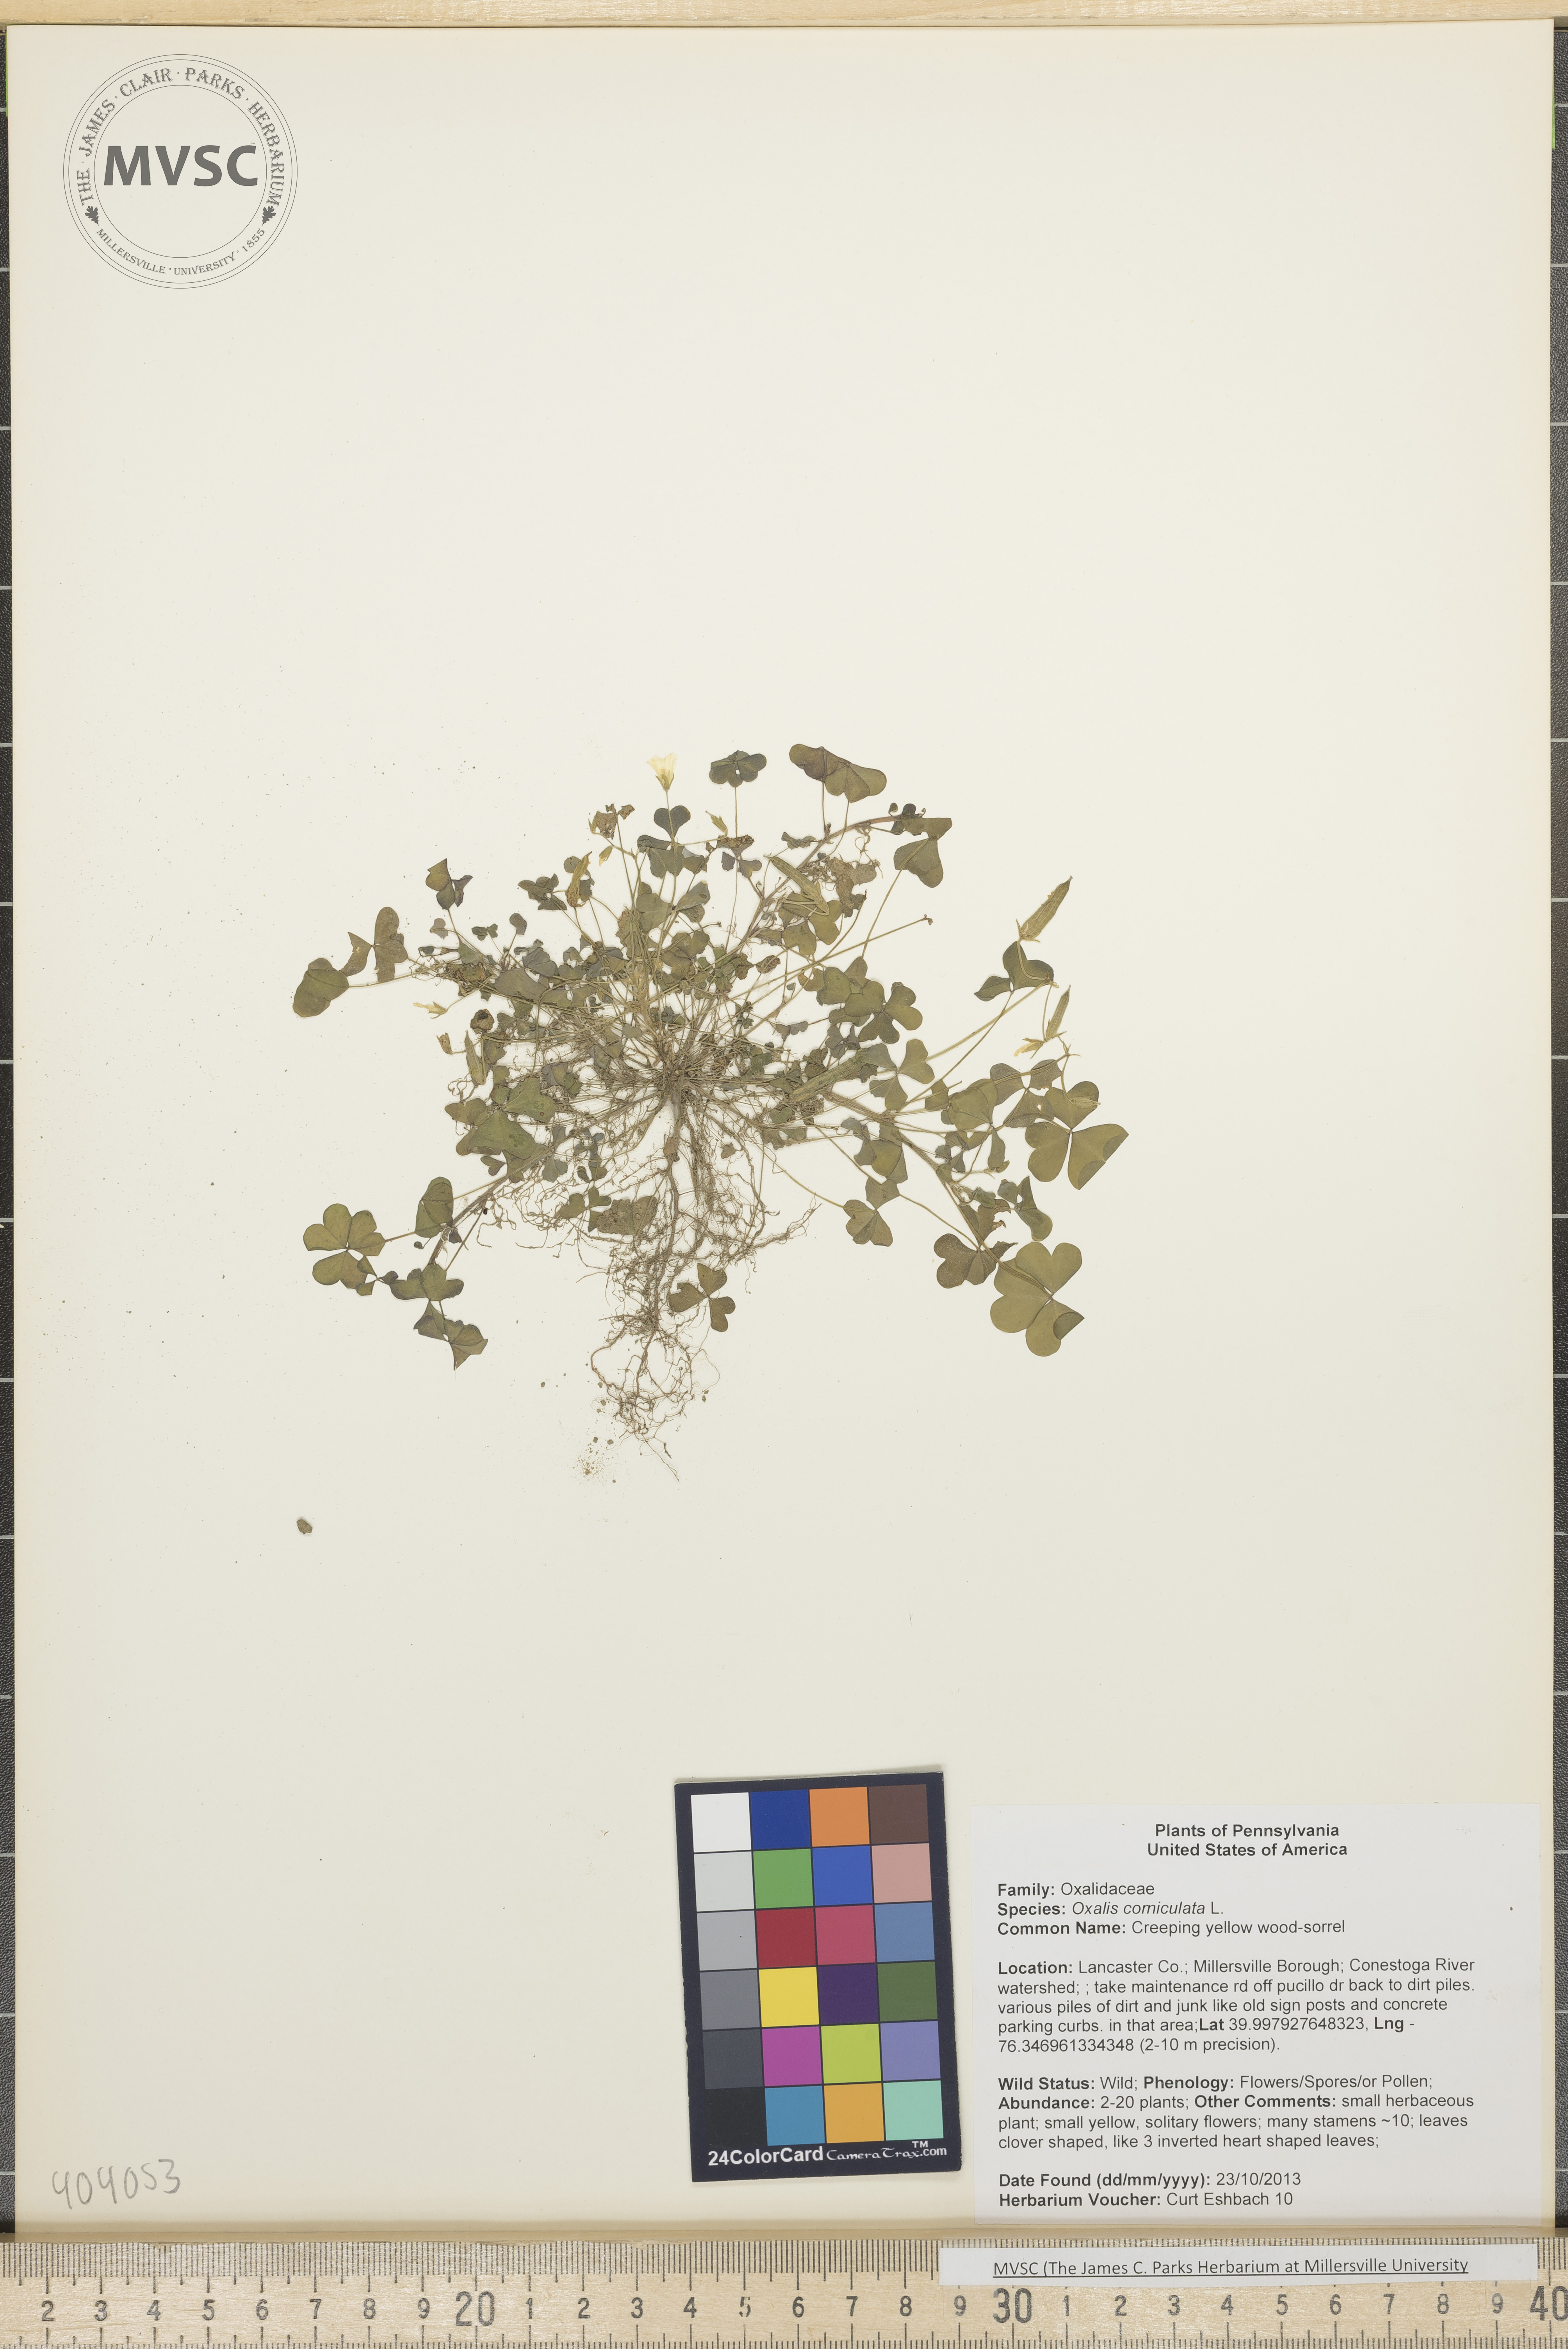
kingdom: Plantae
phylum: Tracheophyta
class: Magnoliopsida
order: Oxalidales
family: Oxalidaceae
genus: Oxalis
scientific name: Oxalis corniculata
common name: Creeping yellow wood-sorrel
